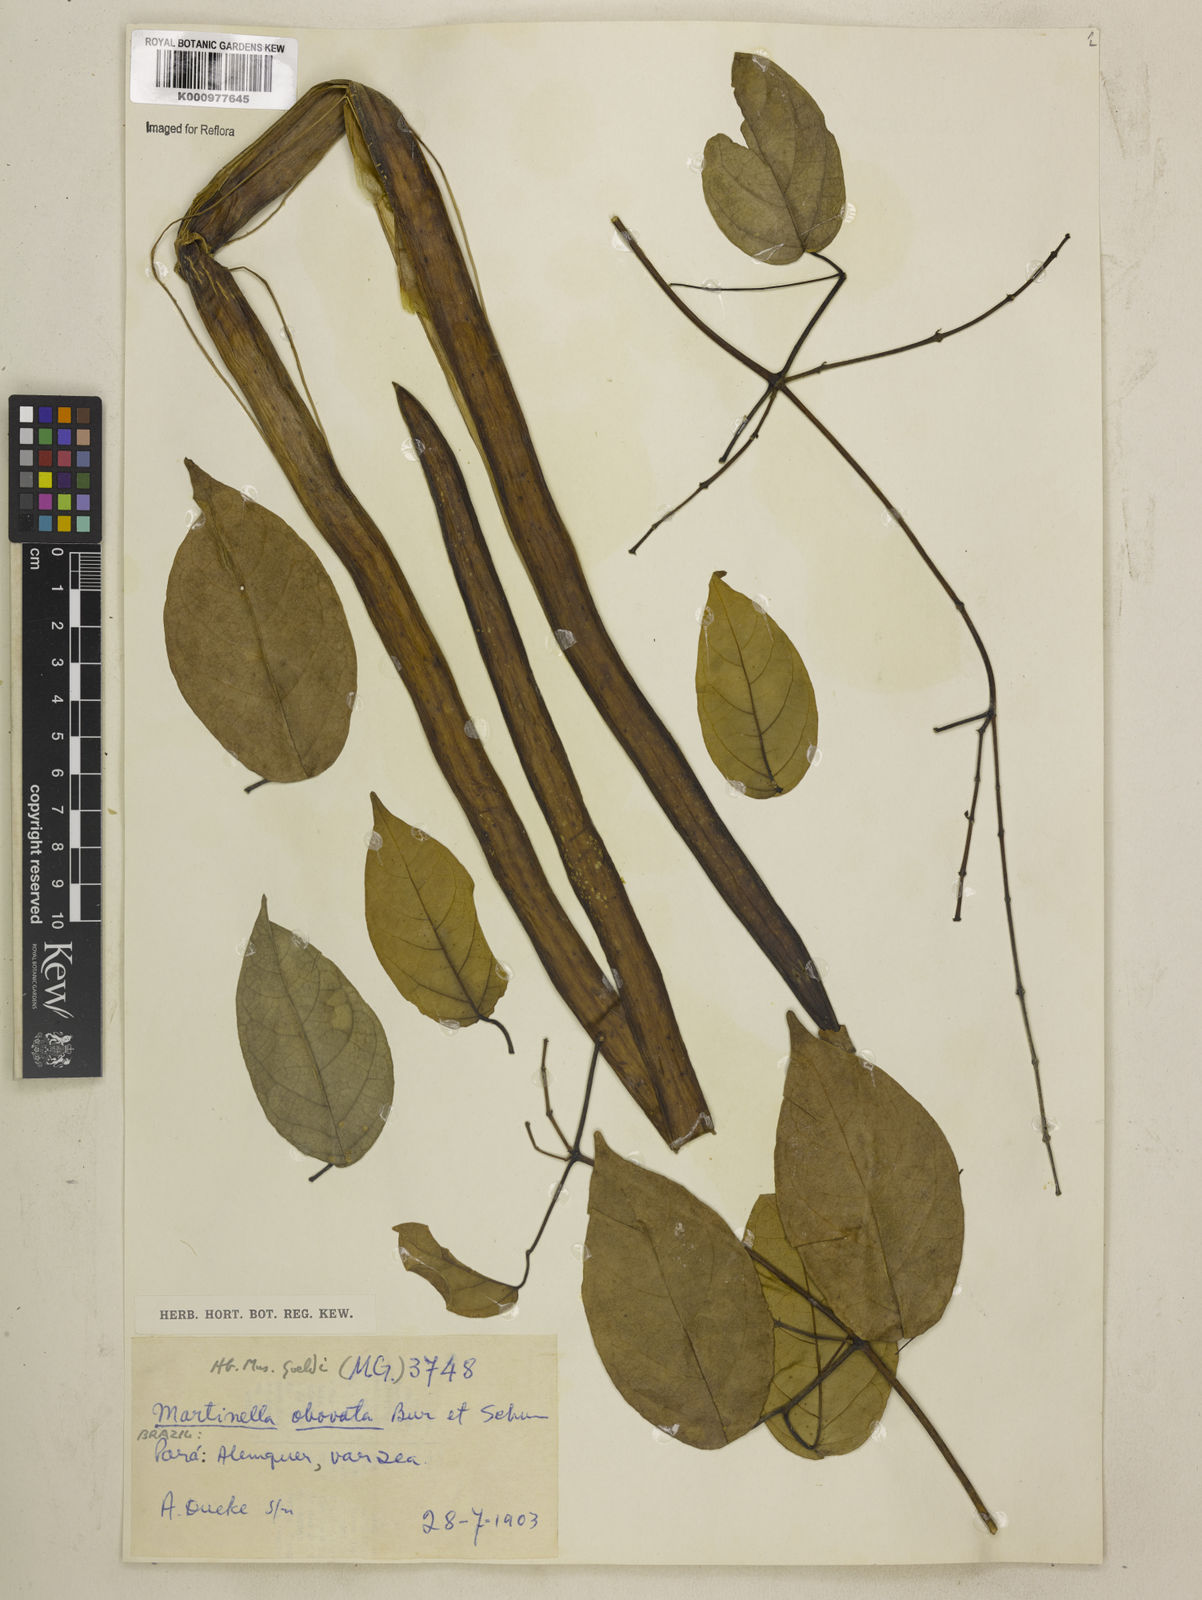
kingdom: Animalia
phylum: Arthropoda
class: Insecta
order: Coleoptera
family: Chrysomelidae
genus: Martinella
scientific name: Martinella obovata
